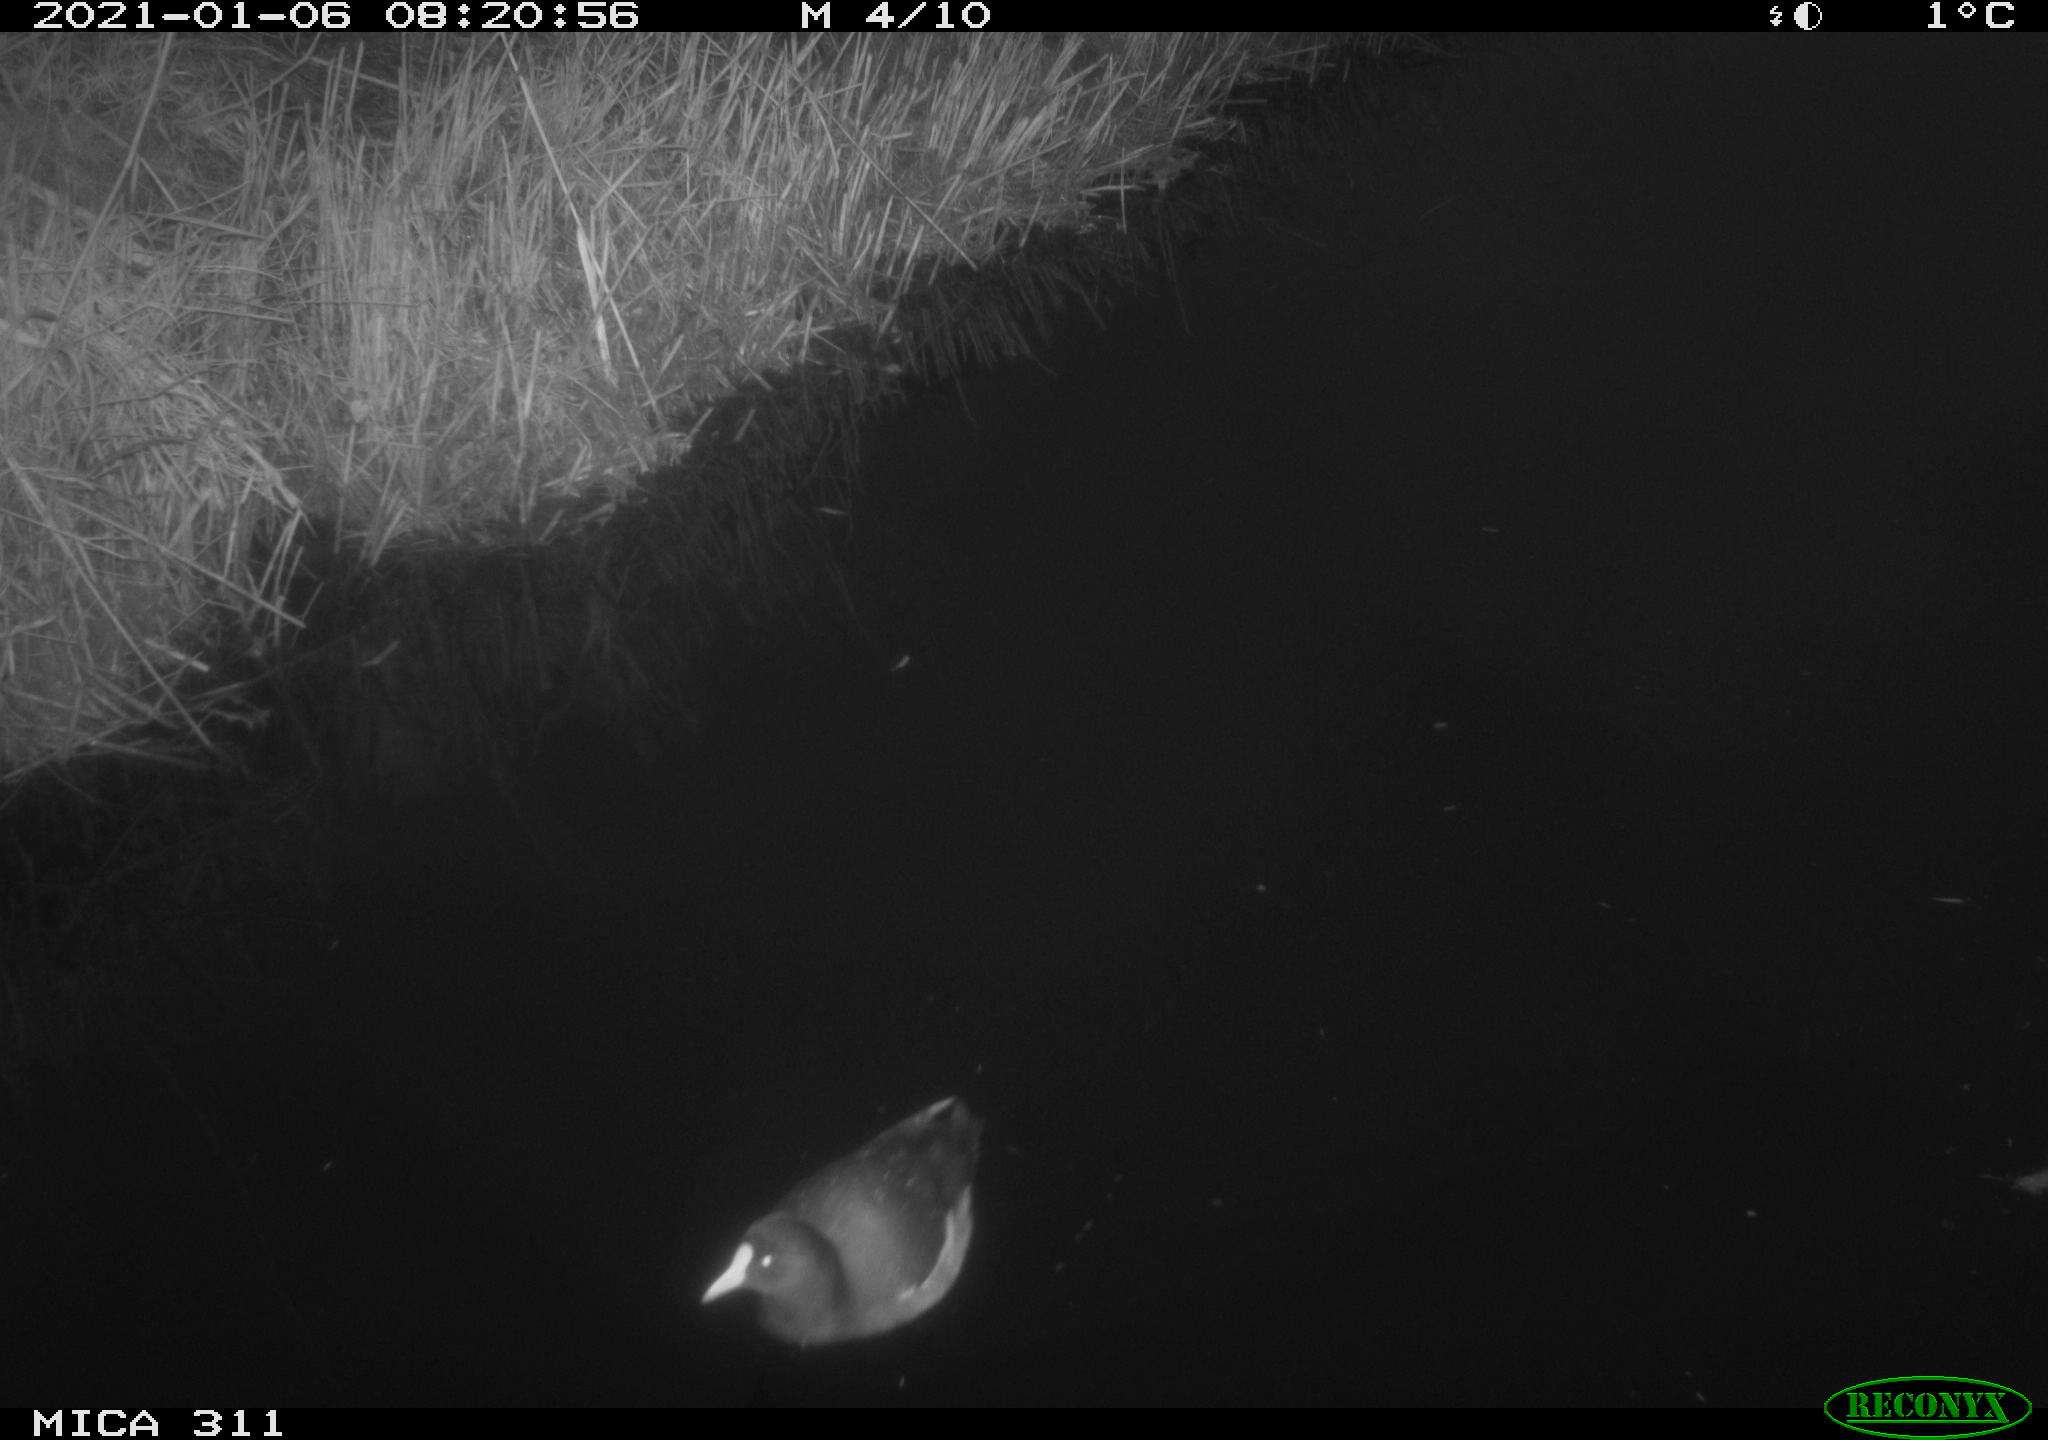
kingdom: Animalia
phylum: Chordata
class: Aves
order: Gruiformes
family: Rallidae
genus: Gallinula
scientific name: Gallinula chloropus
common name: Common moorhen
